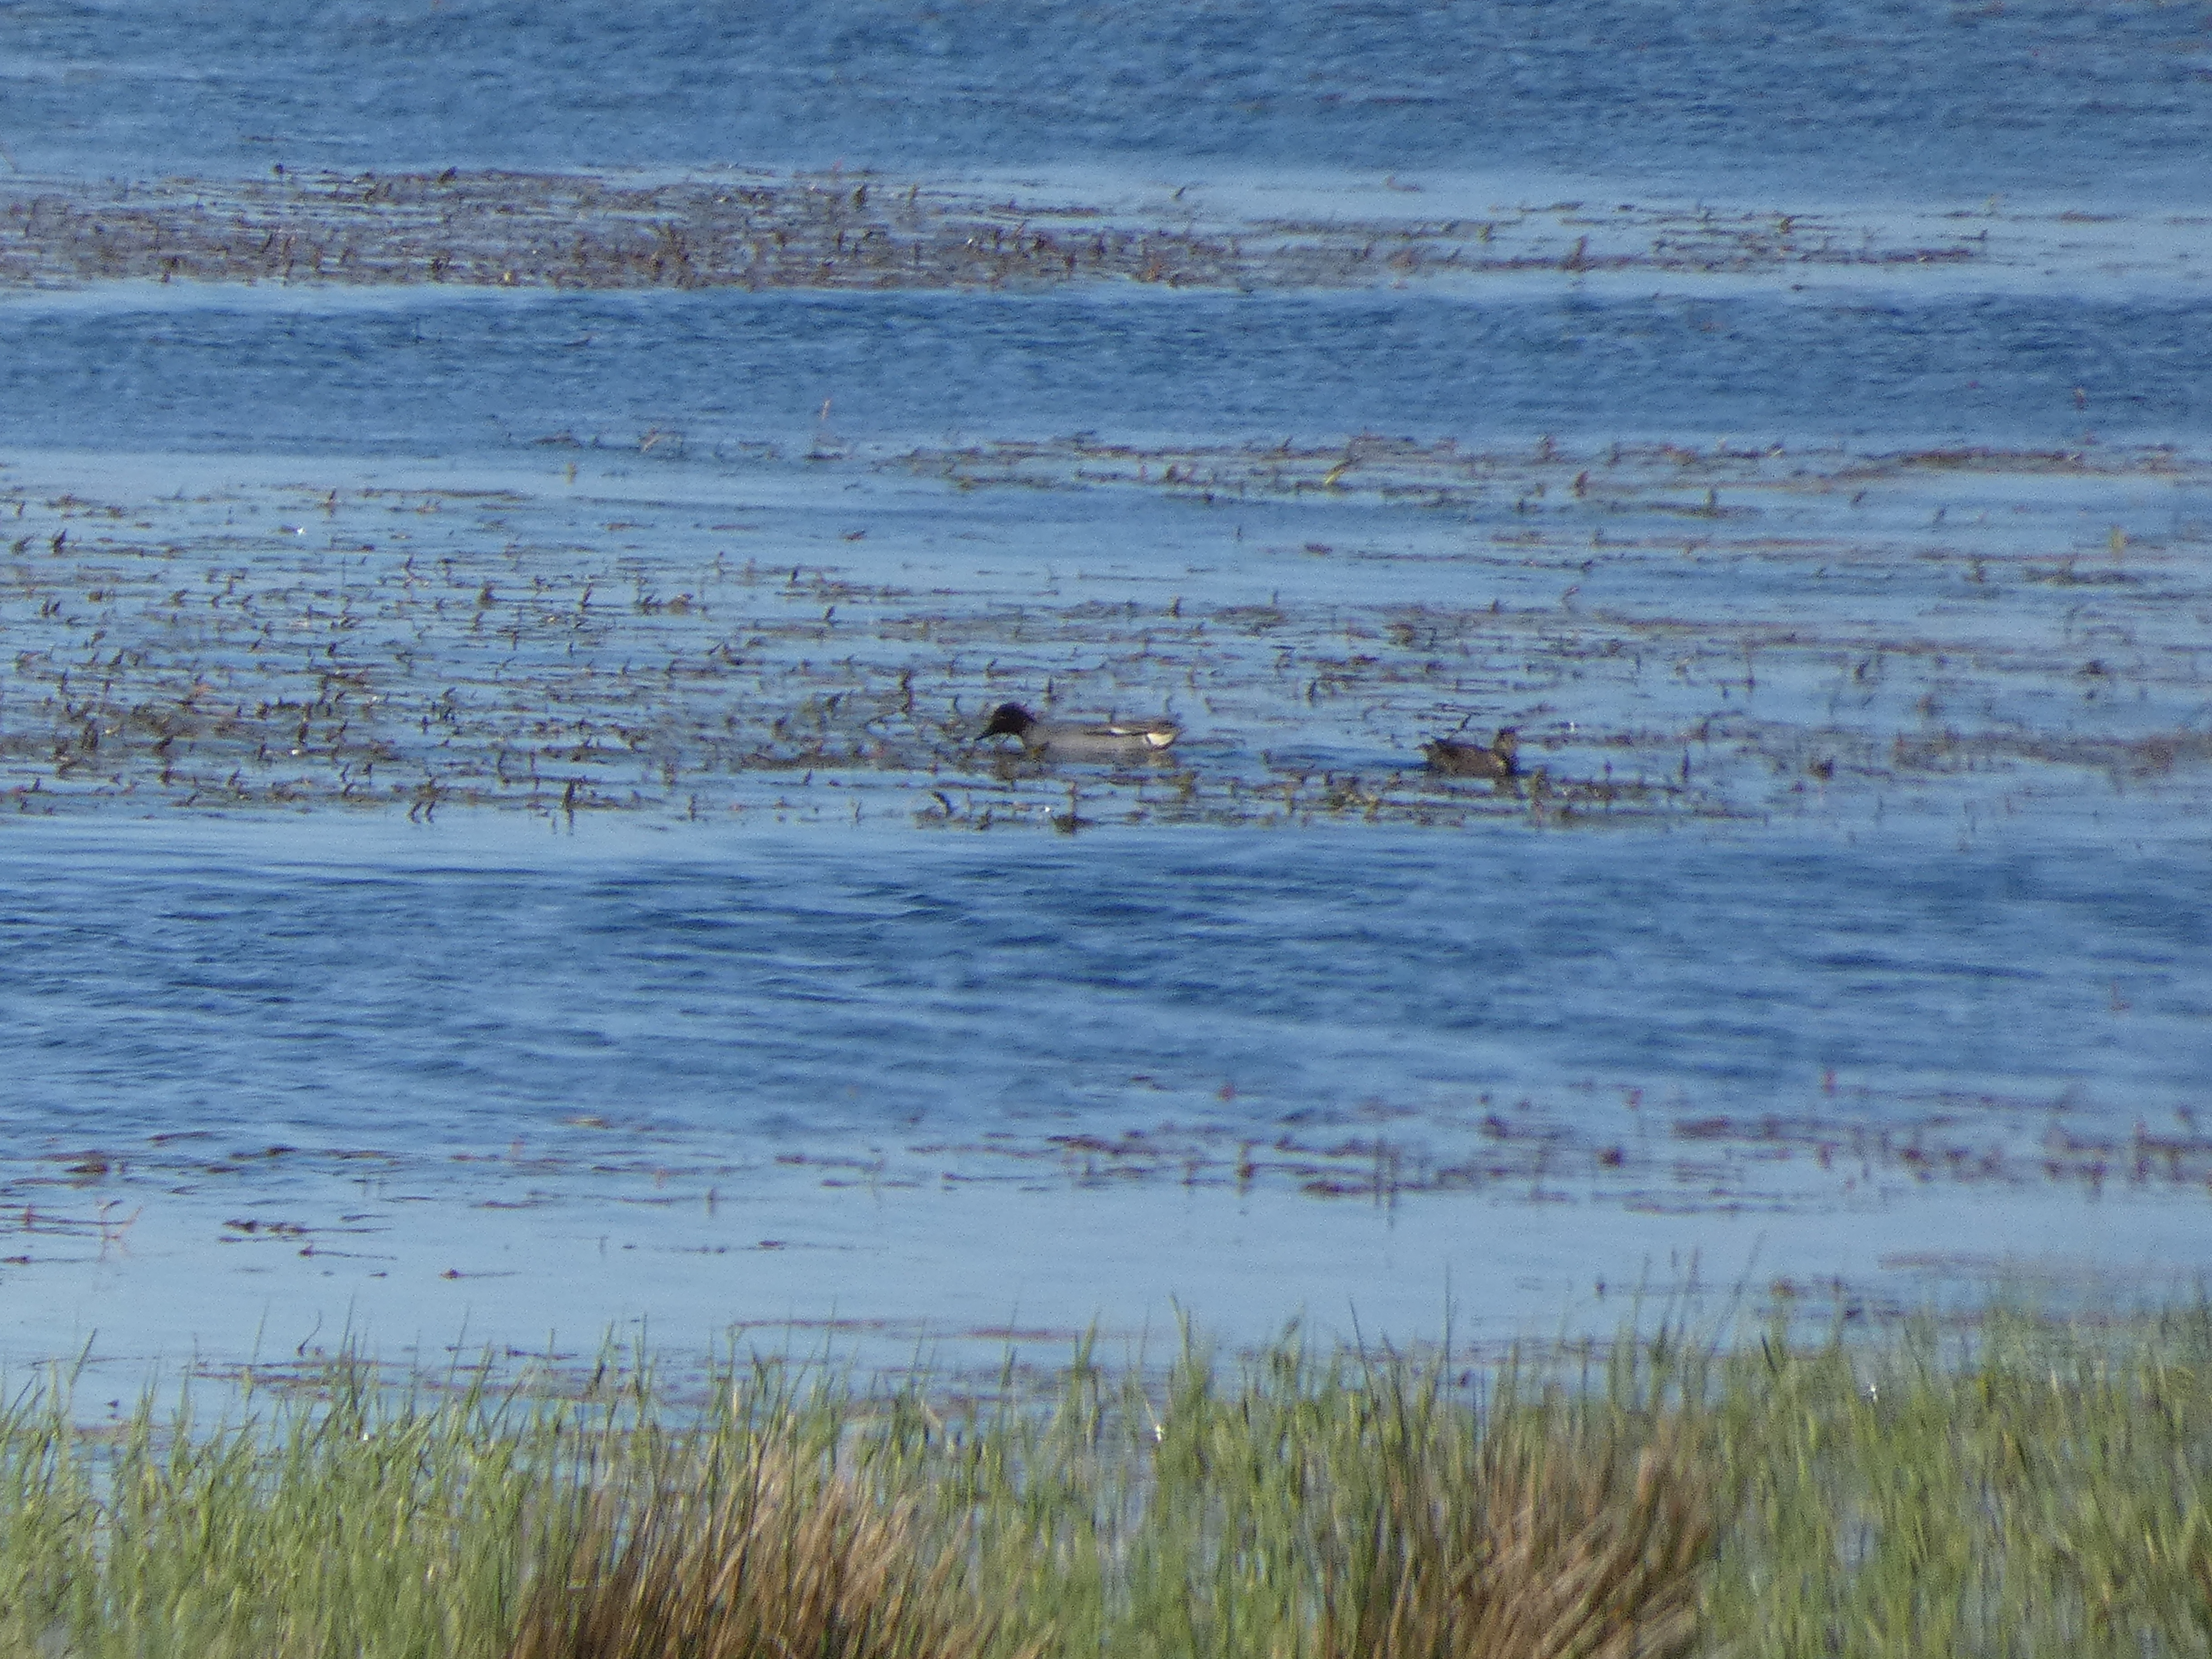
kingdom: Animalia
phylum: Chordata
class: Aves
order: Anseriformes
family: Anatidae
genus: Anas
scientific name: Anas crecca
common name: Krikand
